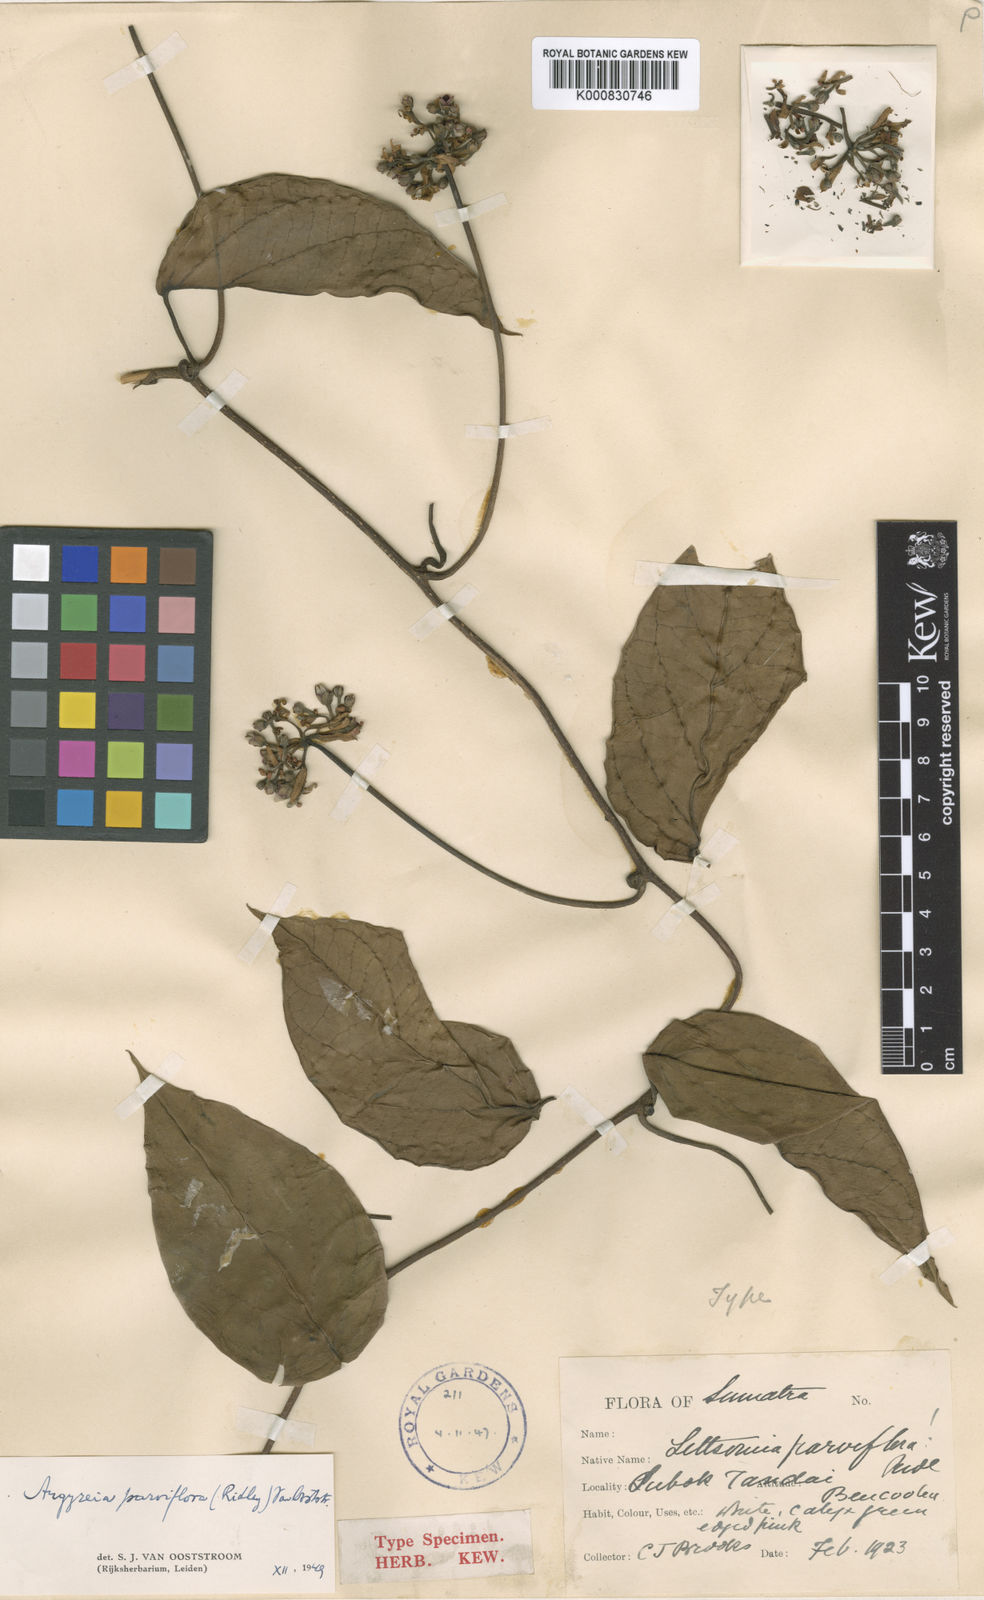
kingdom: Plantae
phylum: Tracheophyta
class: Magnoliopsida
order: Solanales
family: Convolvulaceae
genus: Argyreia
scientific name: Argyreia parviflora
